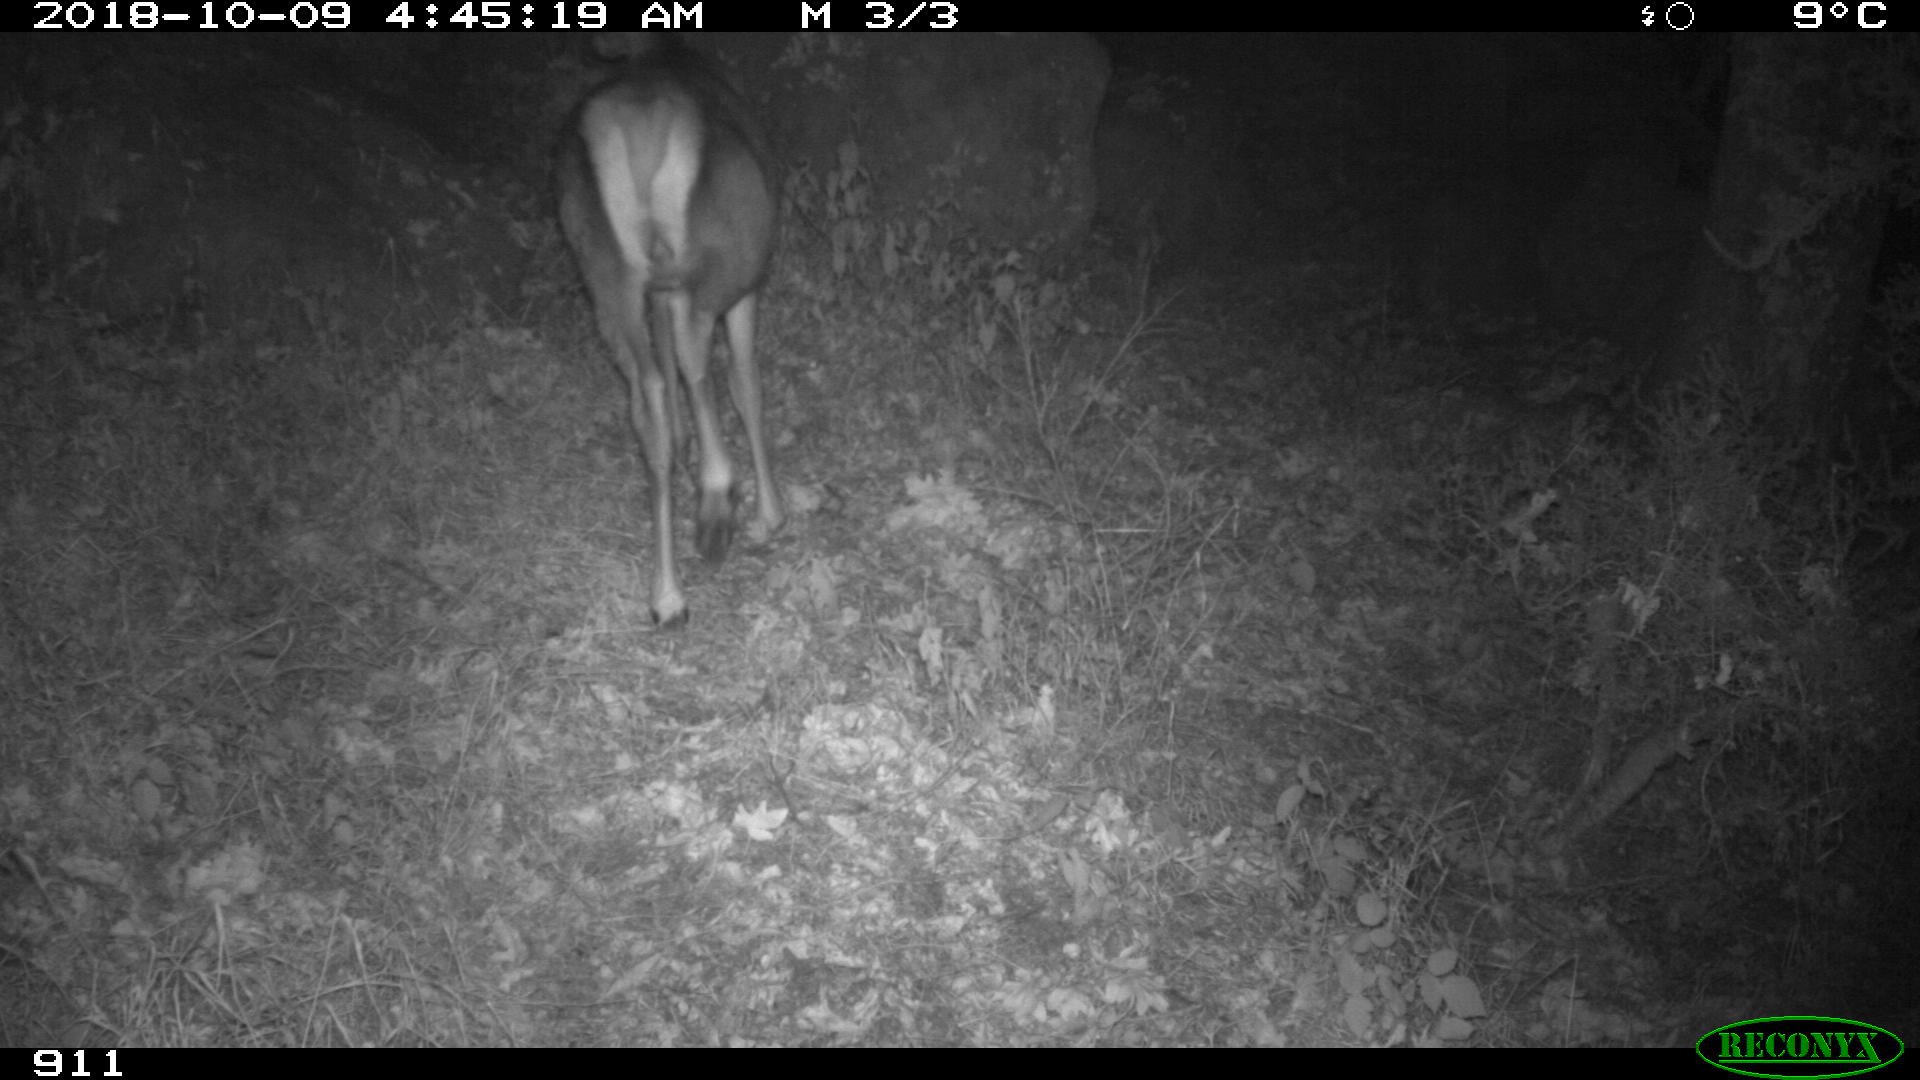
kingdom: Animalia
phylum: Chordata
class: Mammalia
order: Artiodactyla
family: Cervidae
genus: Cervus
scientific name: Cervus elaphus
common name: Red deer
